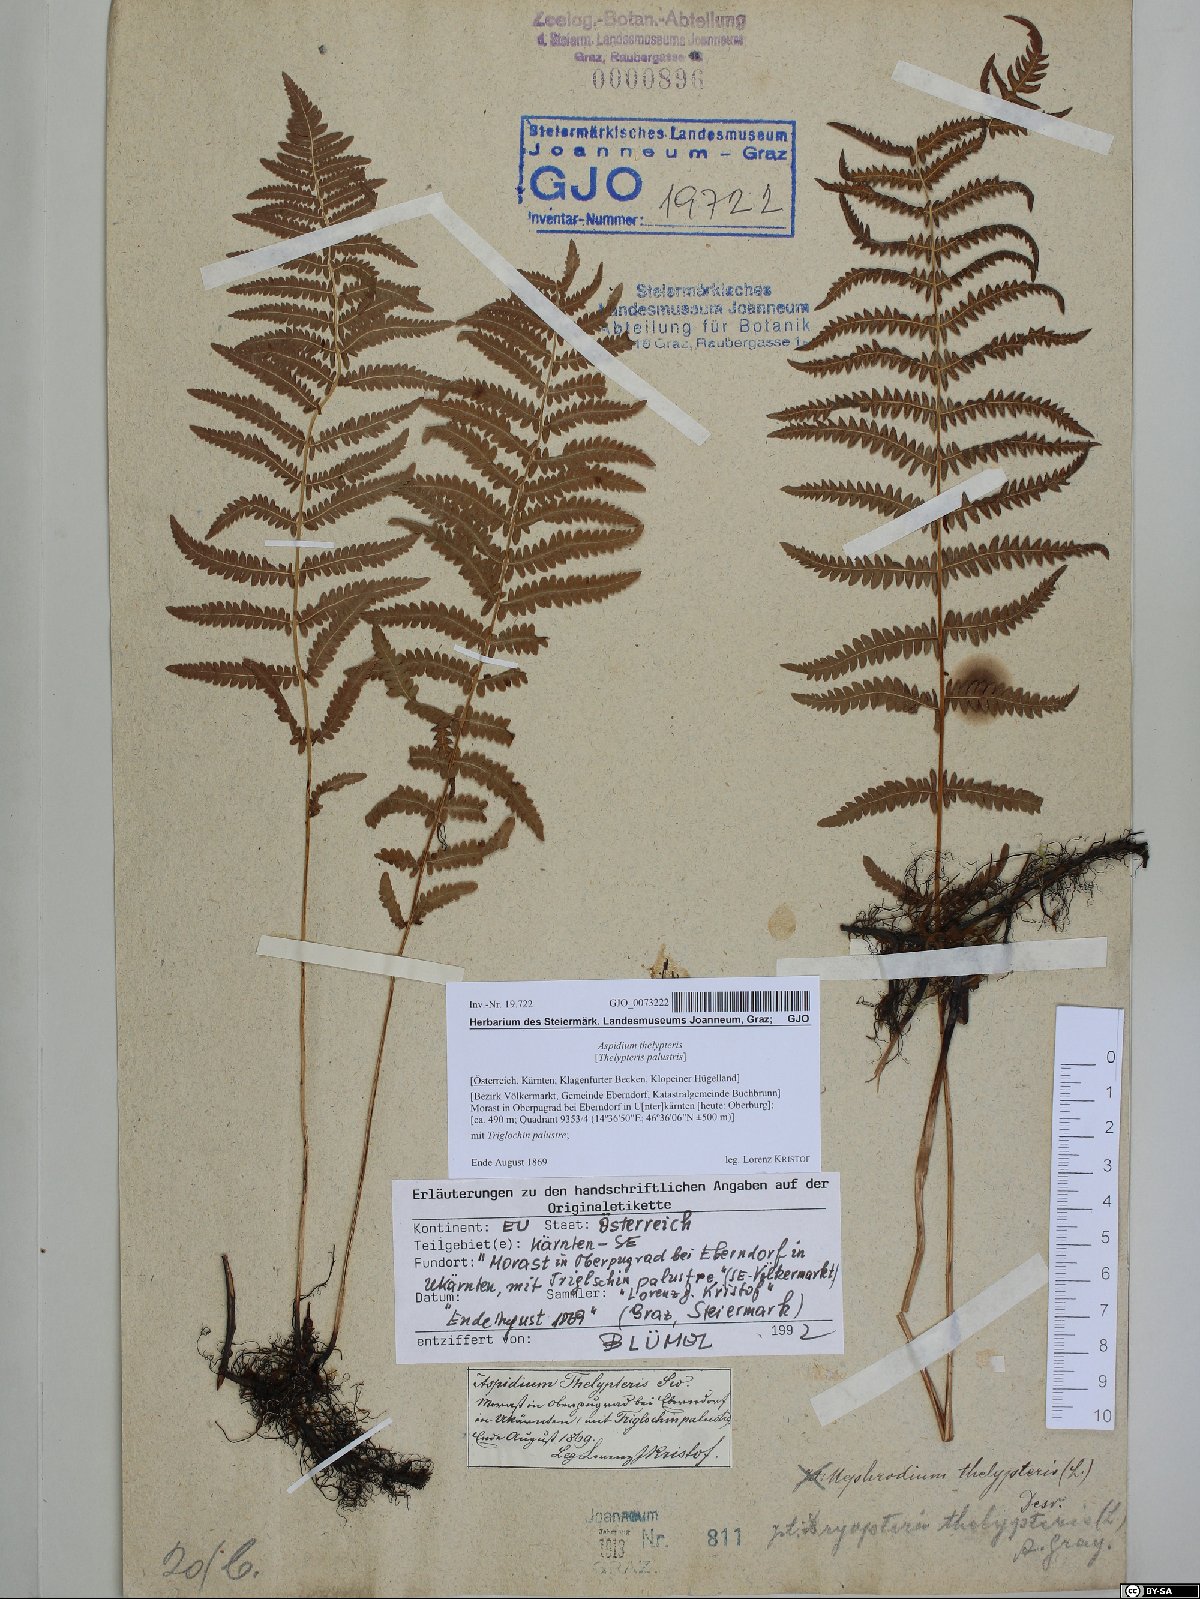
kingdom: Plantae
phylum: Tracheophyta
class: Polypodiopsida
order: Polypodiales
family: Thelypteridaceae
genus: Thelypteris
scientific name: Thelypteris palustris
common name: Marsh fern
